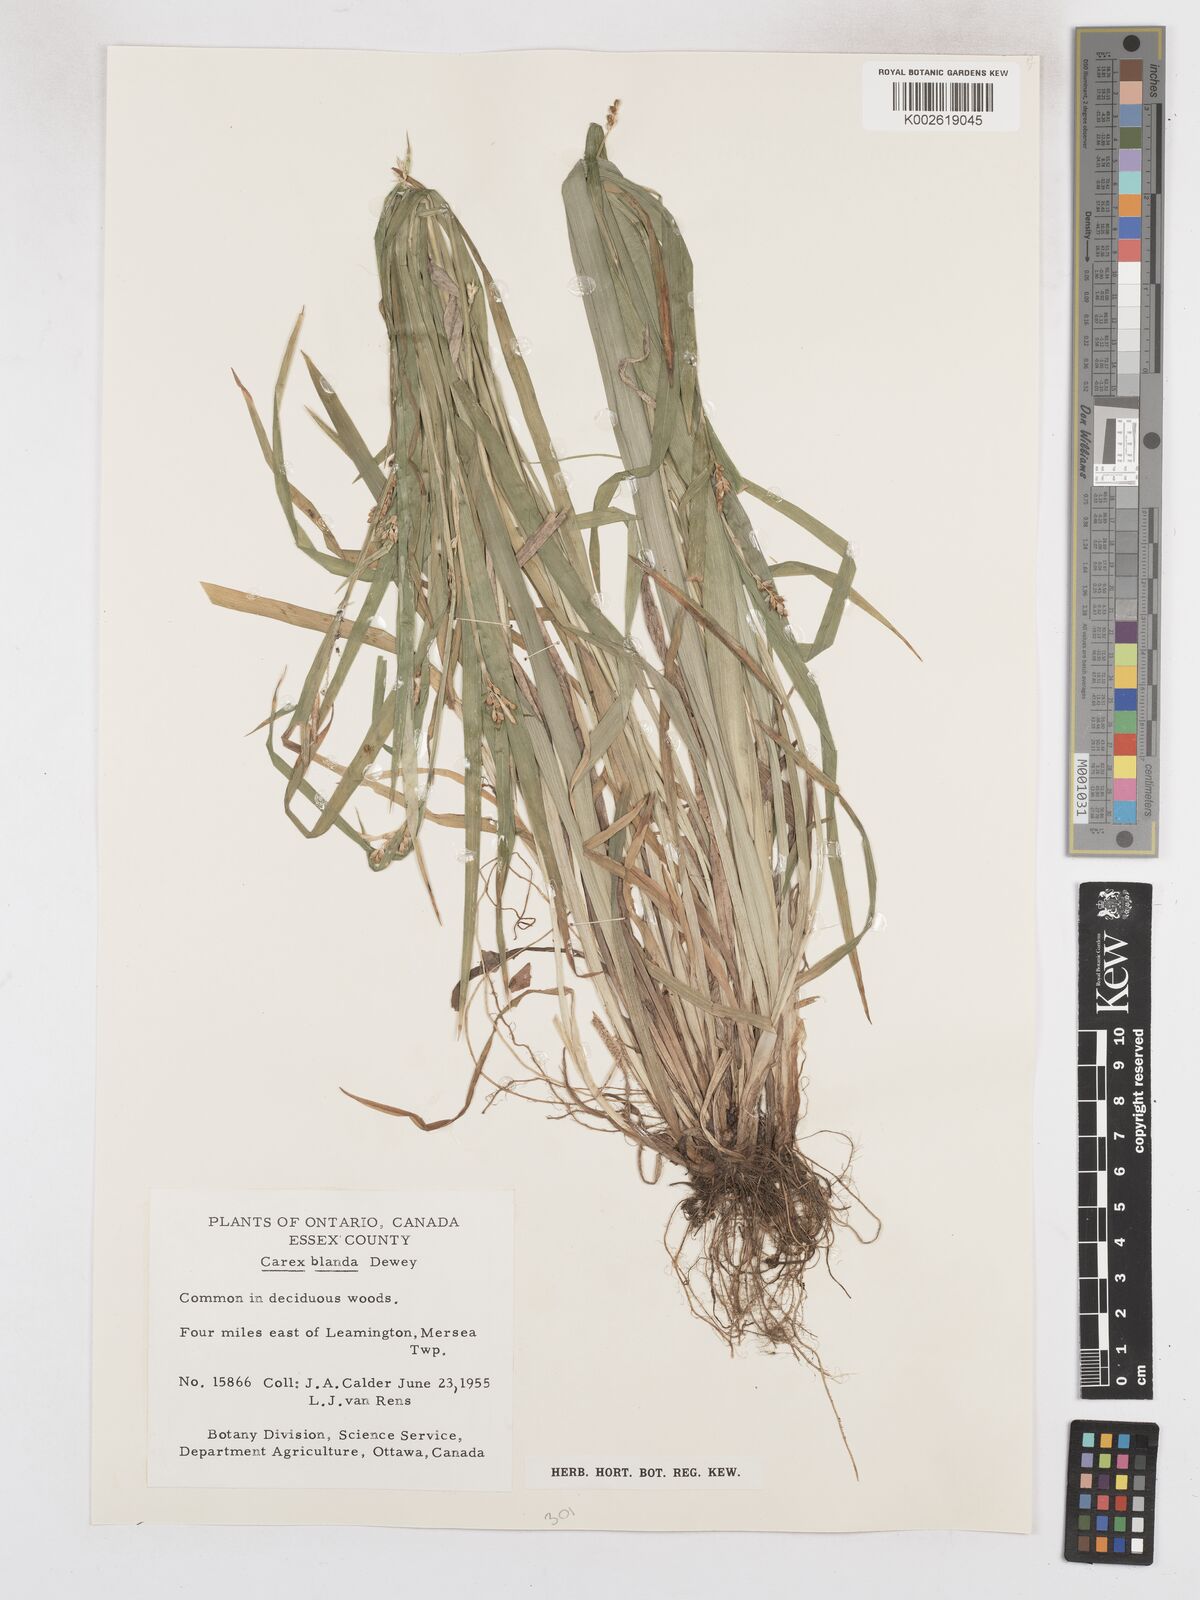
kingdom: Plantae
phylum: Tracheophyta
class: Liliopsida
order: Poales
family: Cyperaceae
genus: Carex
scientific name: Carex blanda
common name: Bland sedge
